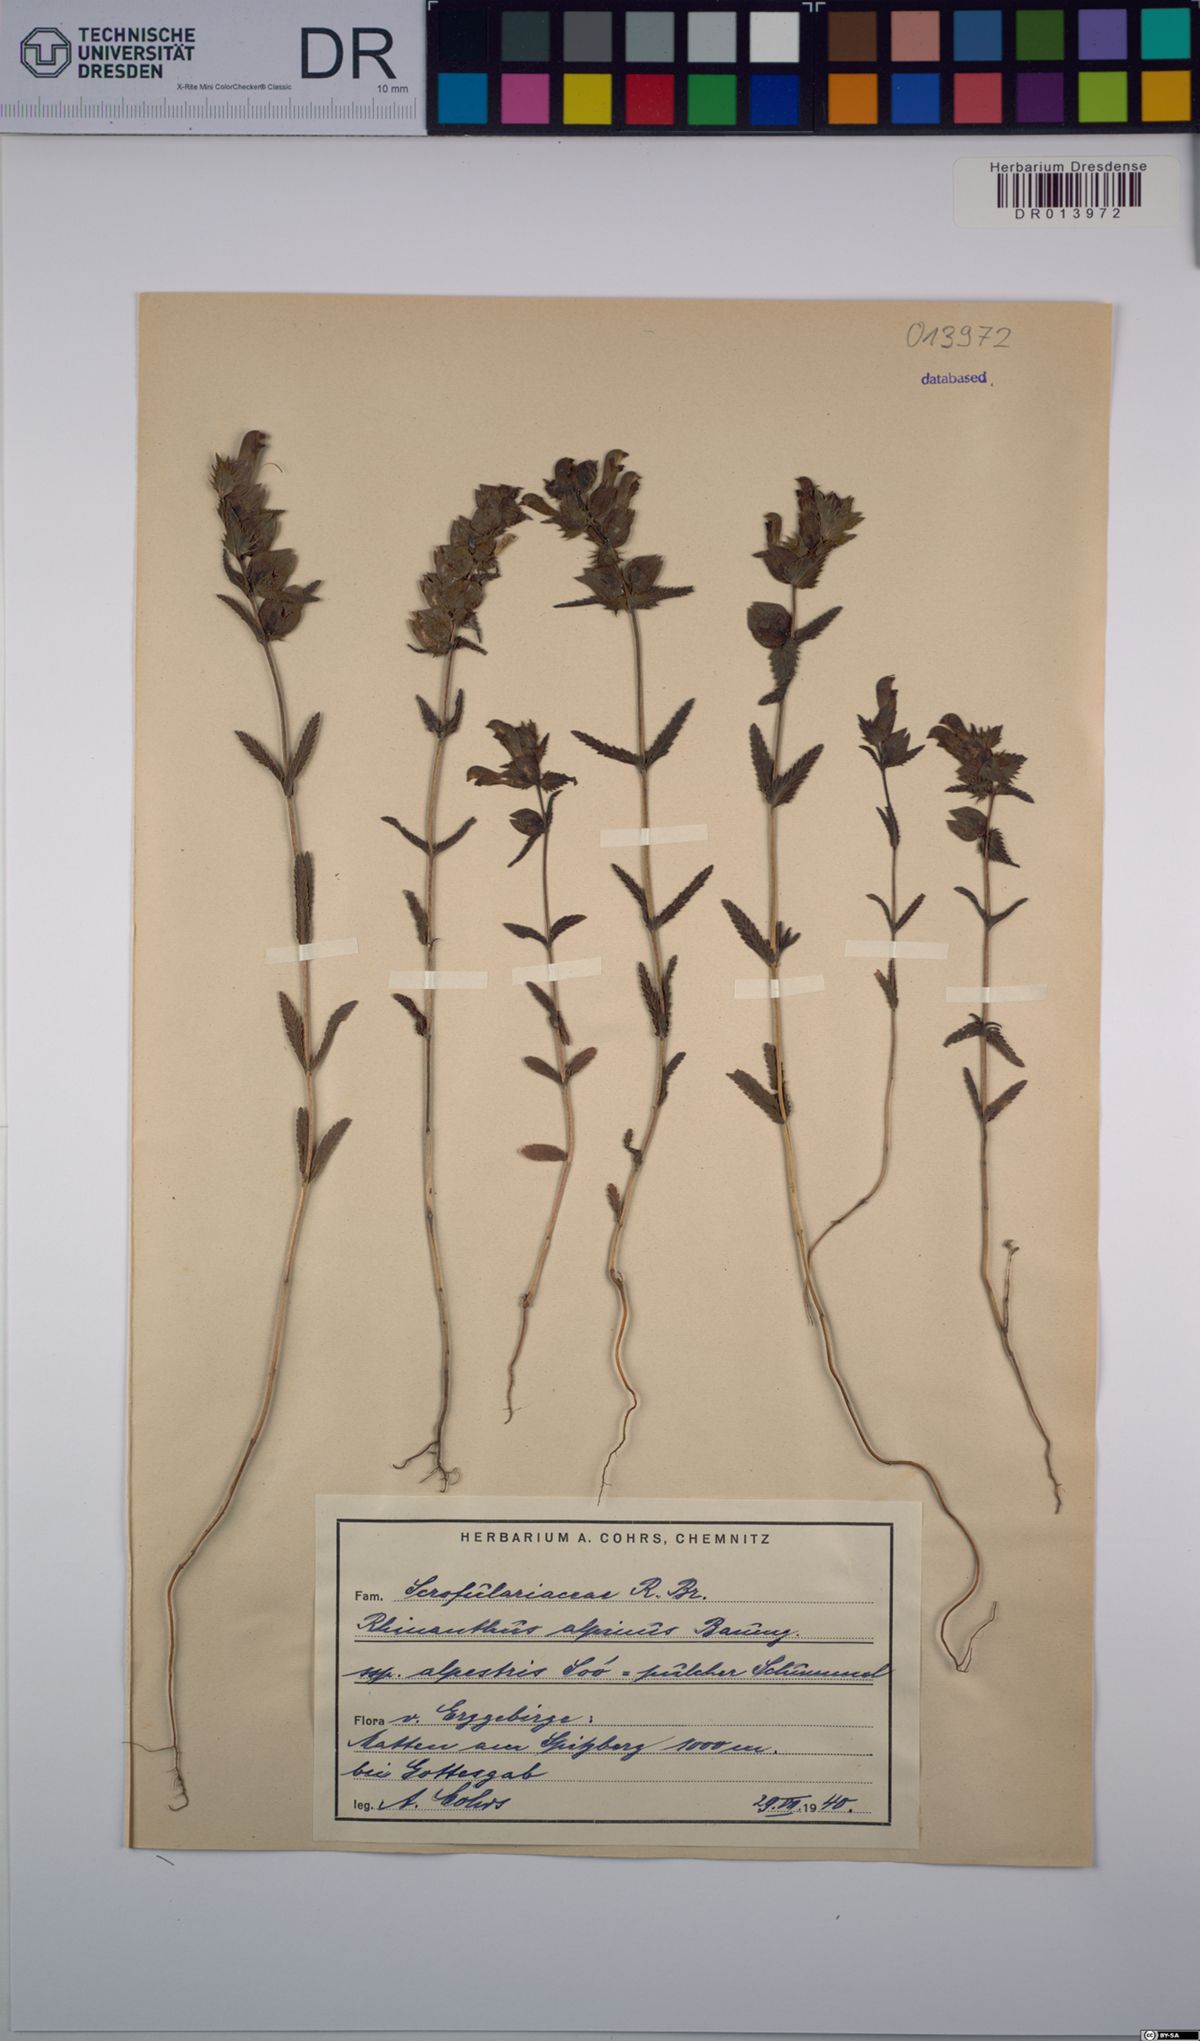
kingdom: Plantae
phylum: Tracheophyta
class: Magnoliopsida
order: Lamiales
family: Orobanchaceae
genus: Rhinanthus
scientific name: Rhinanthus riphaeus
